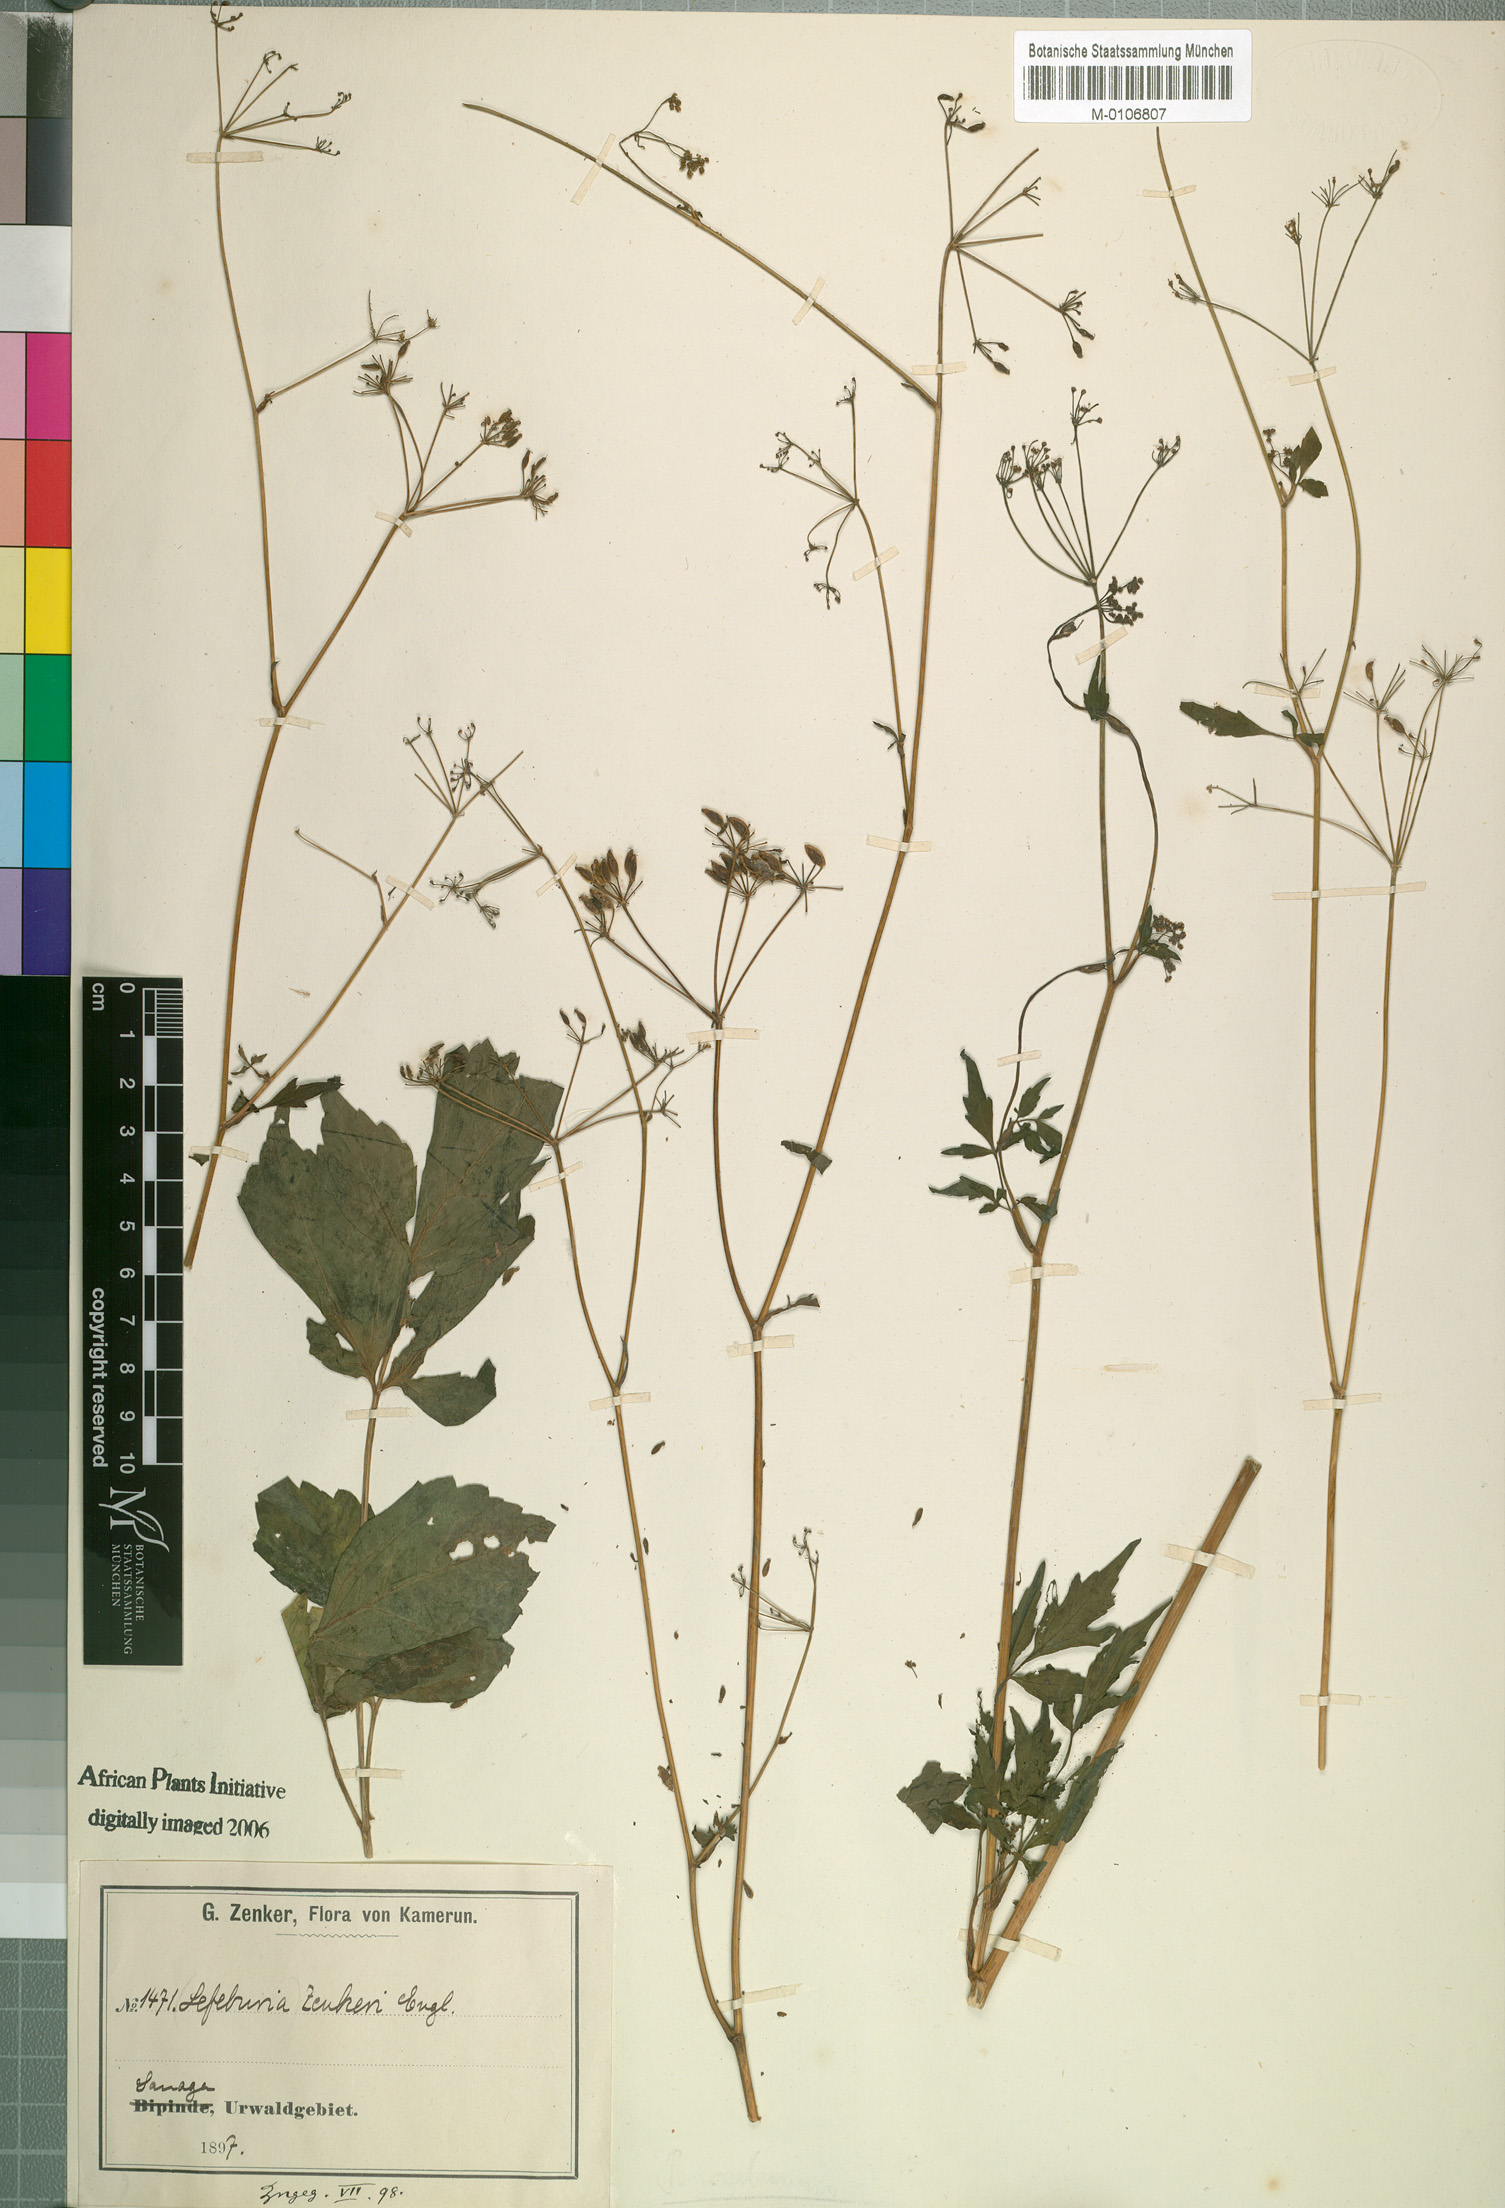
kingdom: Plantae
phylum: Tracheophyta
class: Magnoliopsida
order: Apiales
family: Apiaceae
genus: Lefebvrea
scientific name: Lefebvrea grantii
